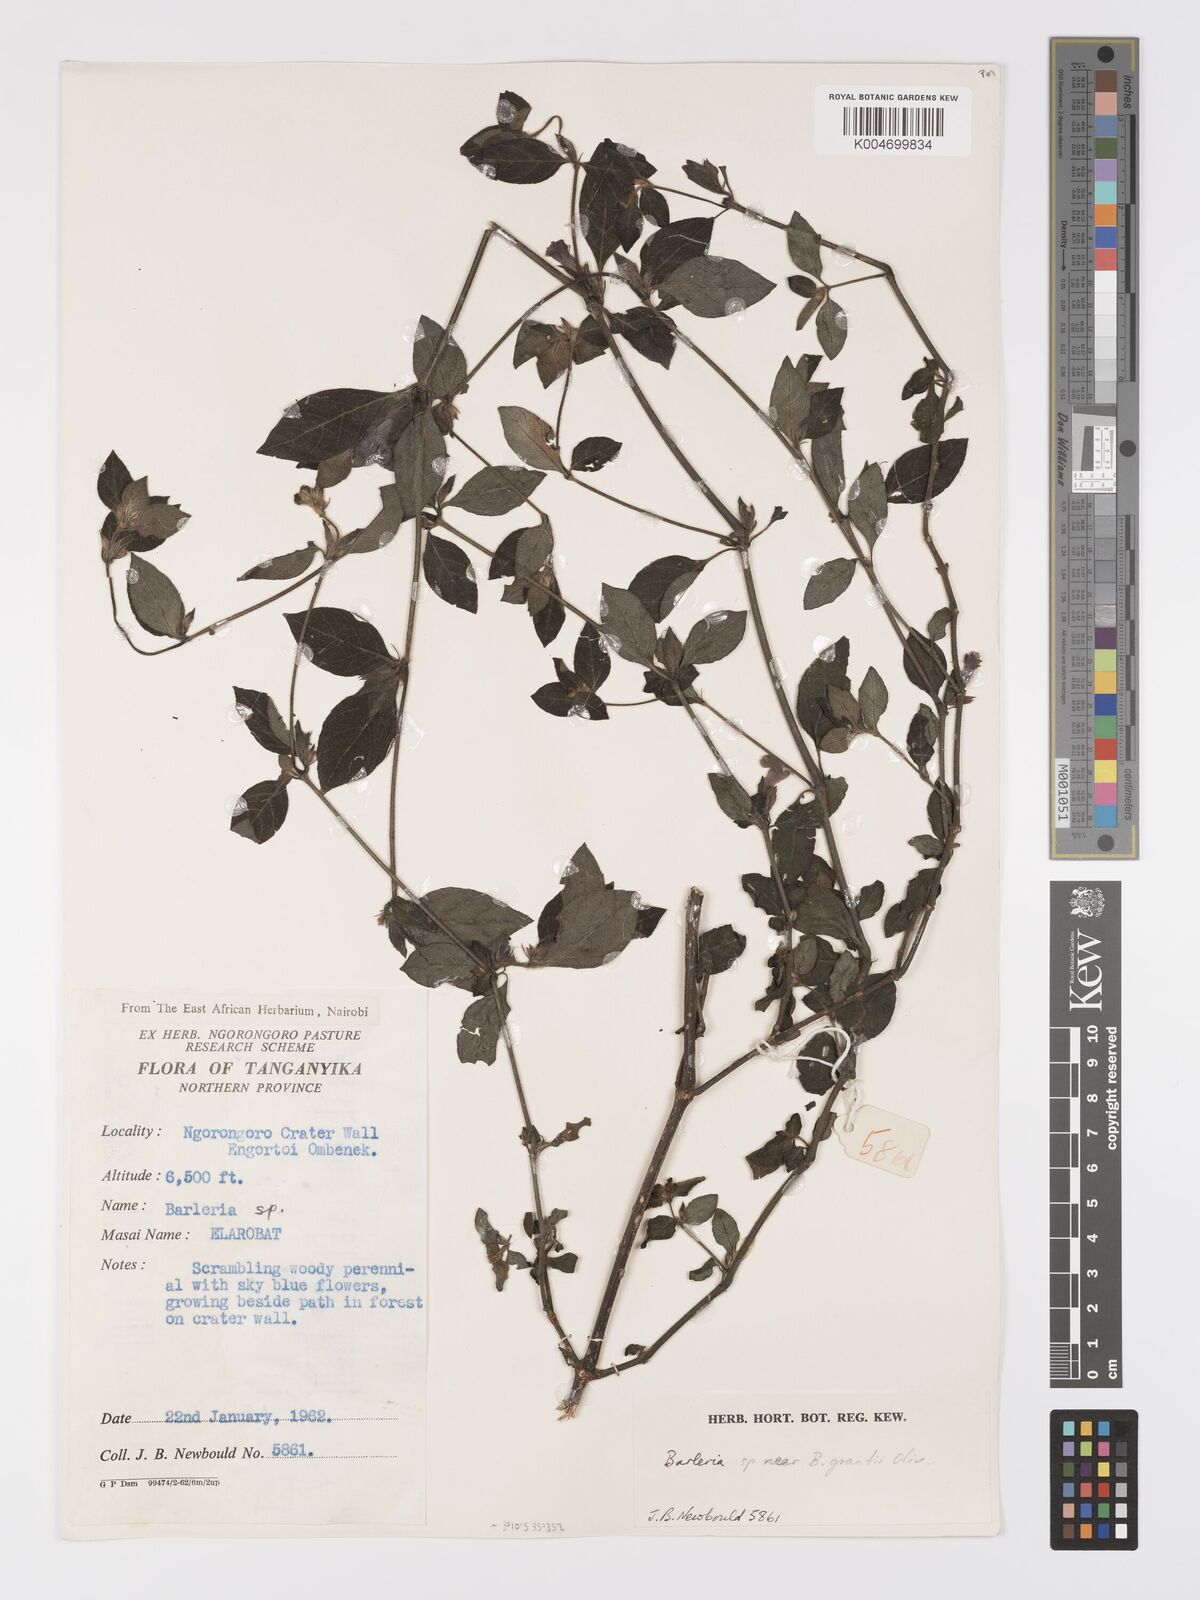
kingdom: Plantae
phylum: Tracheophyta
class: Magnoliopsida
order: Lamiales
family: Acanthaceae
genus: Barleria
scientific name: Barleria ventricosa
